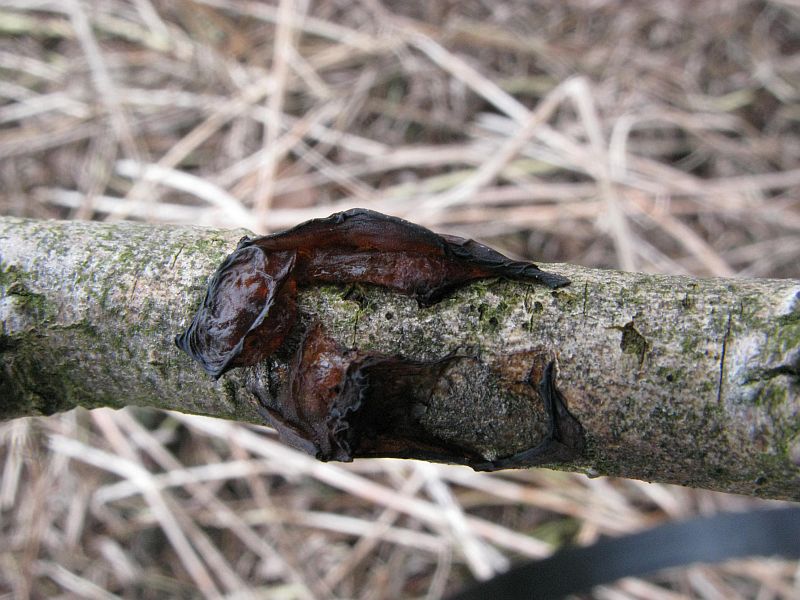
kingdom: Fungi
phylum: Basidiomycota
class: Agaricomycetes
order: Auriculariales
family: Auriculariaceae
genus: Exidia
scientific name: Exidia recisa
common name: pile-bævretop
